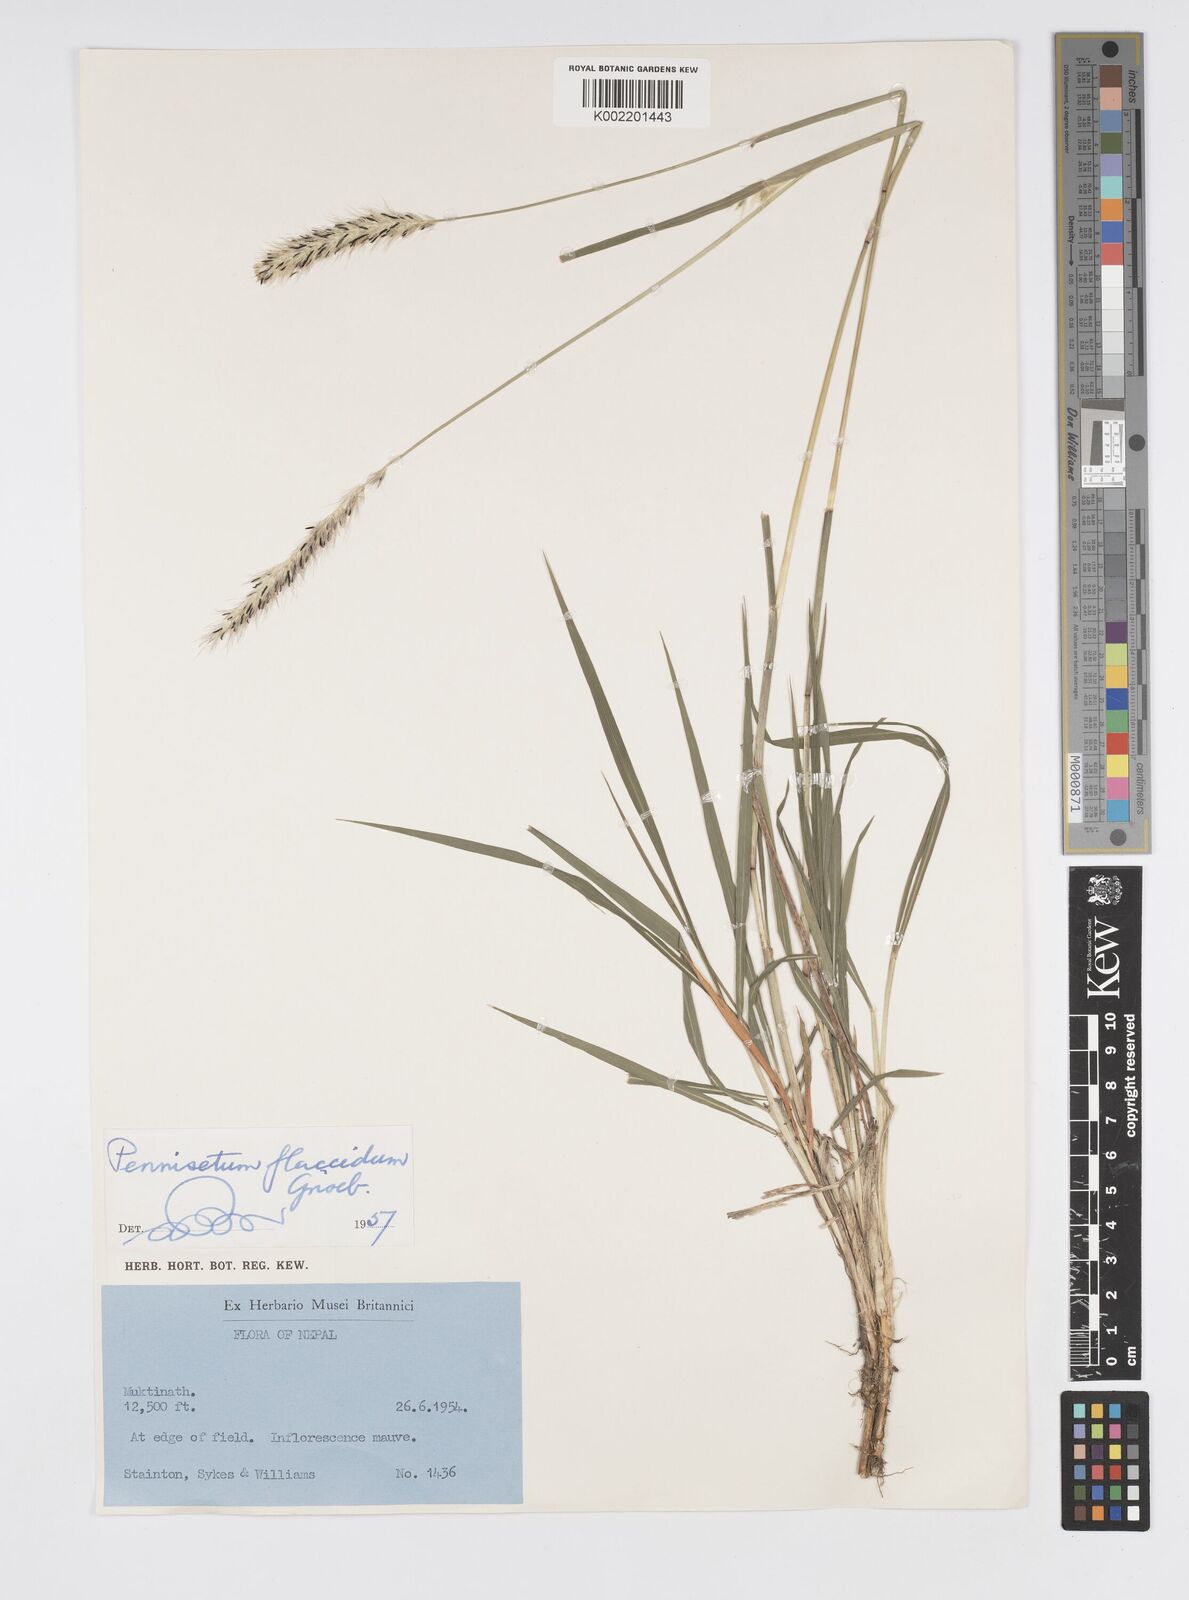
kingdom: Plantae
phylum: Tracheophyta
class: Liliopsida
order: Poales
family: Poaceae
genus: Cenchrus
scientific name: Cenchrus flaccidus
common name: Flaccid grass
